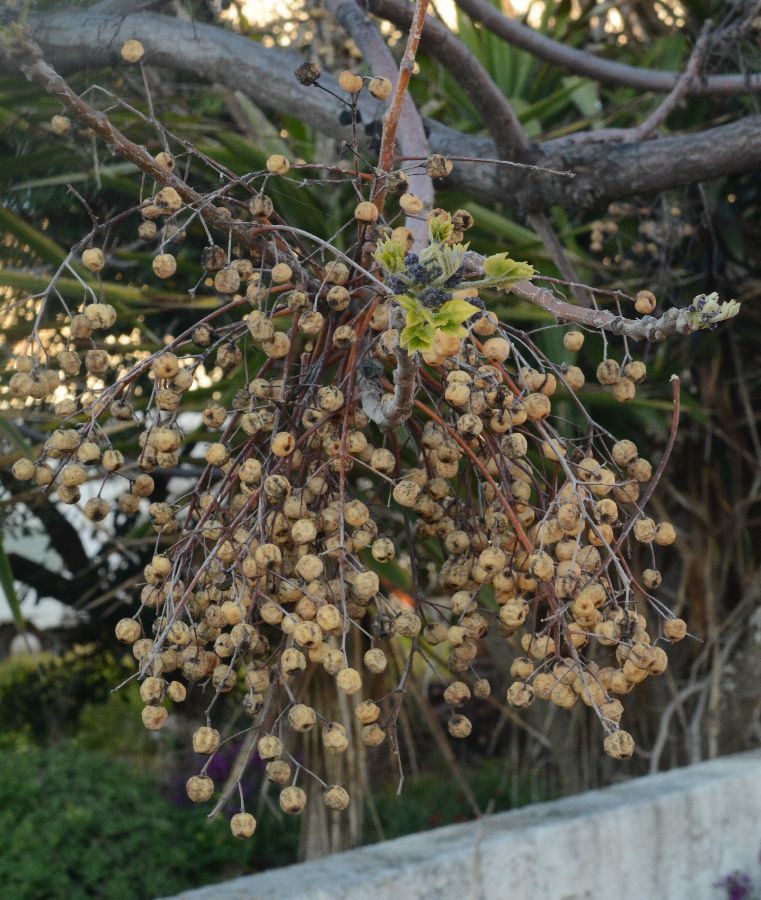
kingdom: Plantae
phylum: Tracheophyta
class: Magnoliopsida
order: Sapindales
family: Meliaceae
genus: Melia
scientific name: Melia azedarach
